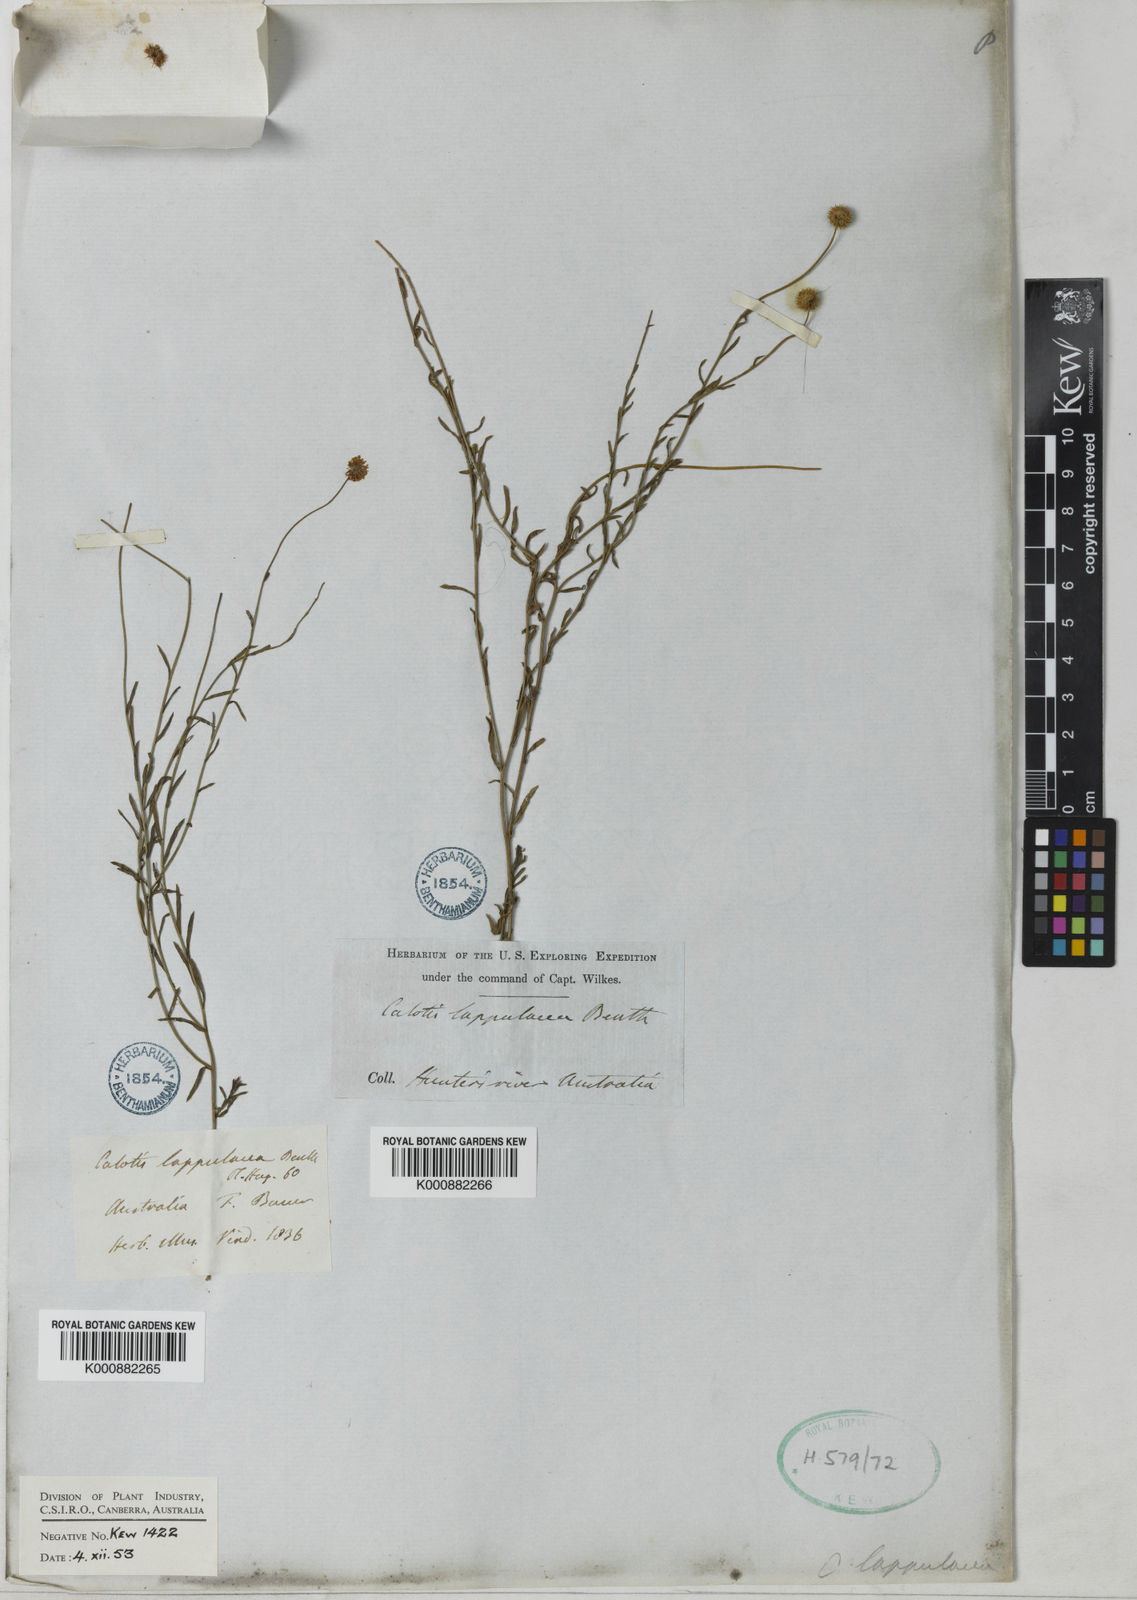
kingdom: Plantae
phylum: Tracheophyta
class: Magnoliopsida
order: Asterales
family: Asteraceae
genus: Calotis
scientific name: Calotis lappulacea
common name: Bur daisy
